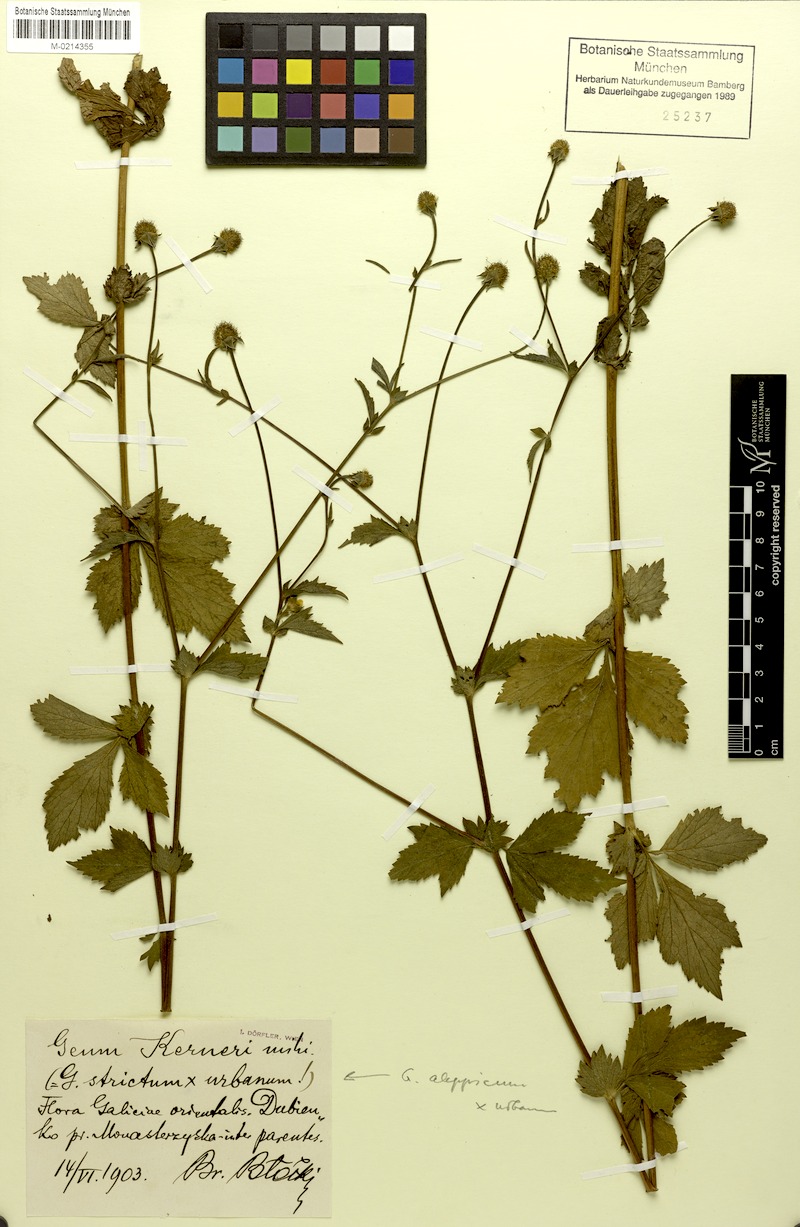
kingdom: Plantae
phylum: Tracheophyta
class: Magnoliopsida
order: Rosales
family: Rosaceae
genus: Geum
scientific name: Geum kerneri
